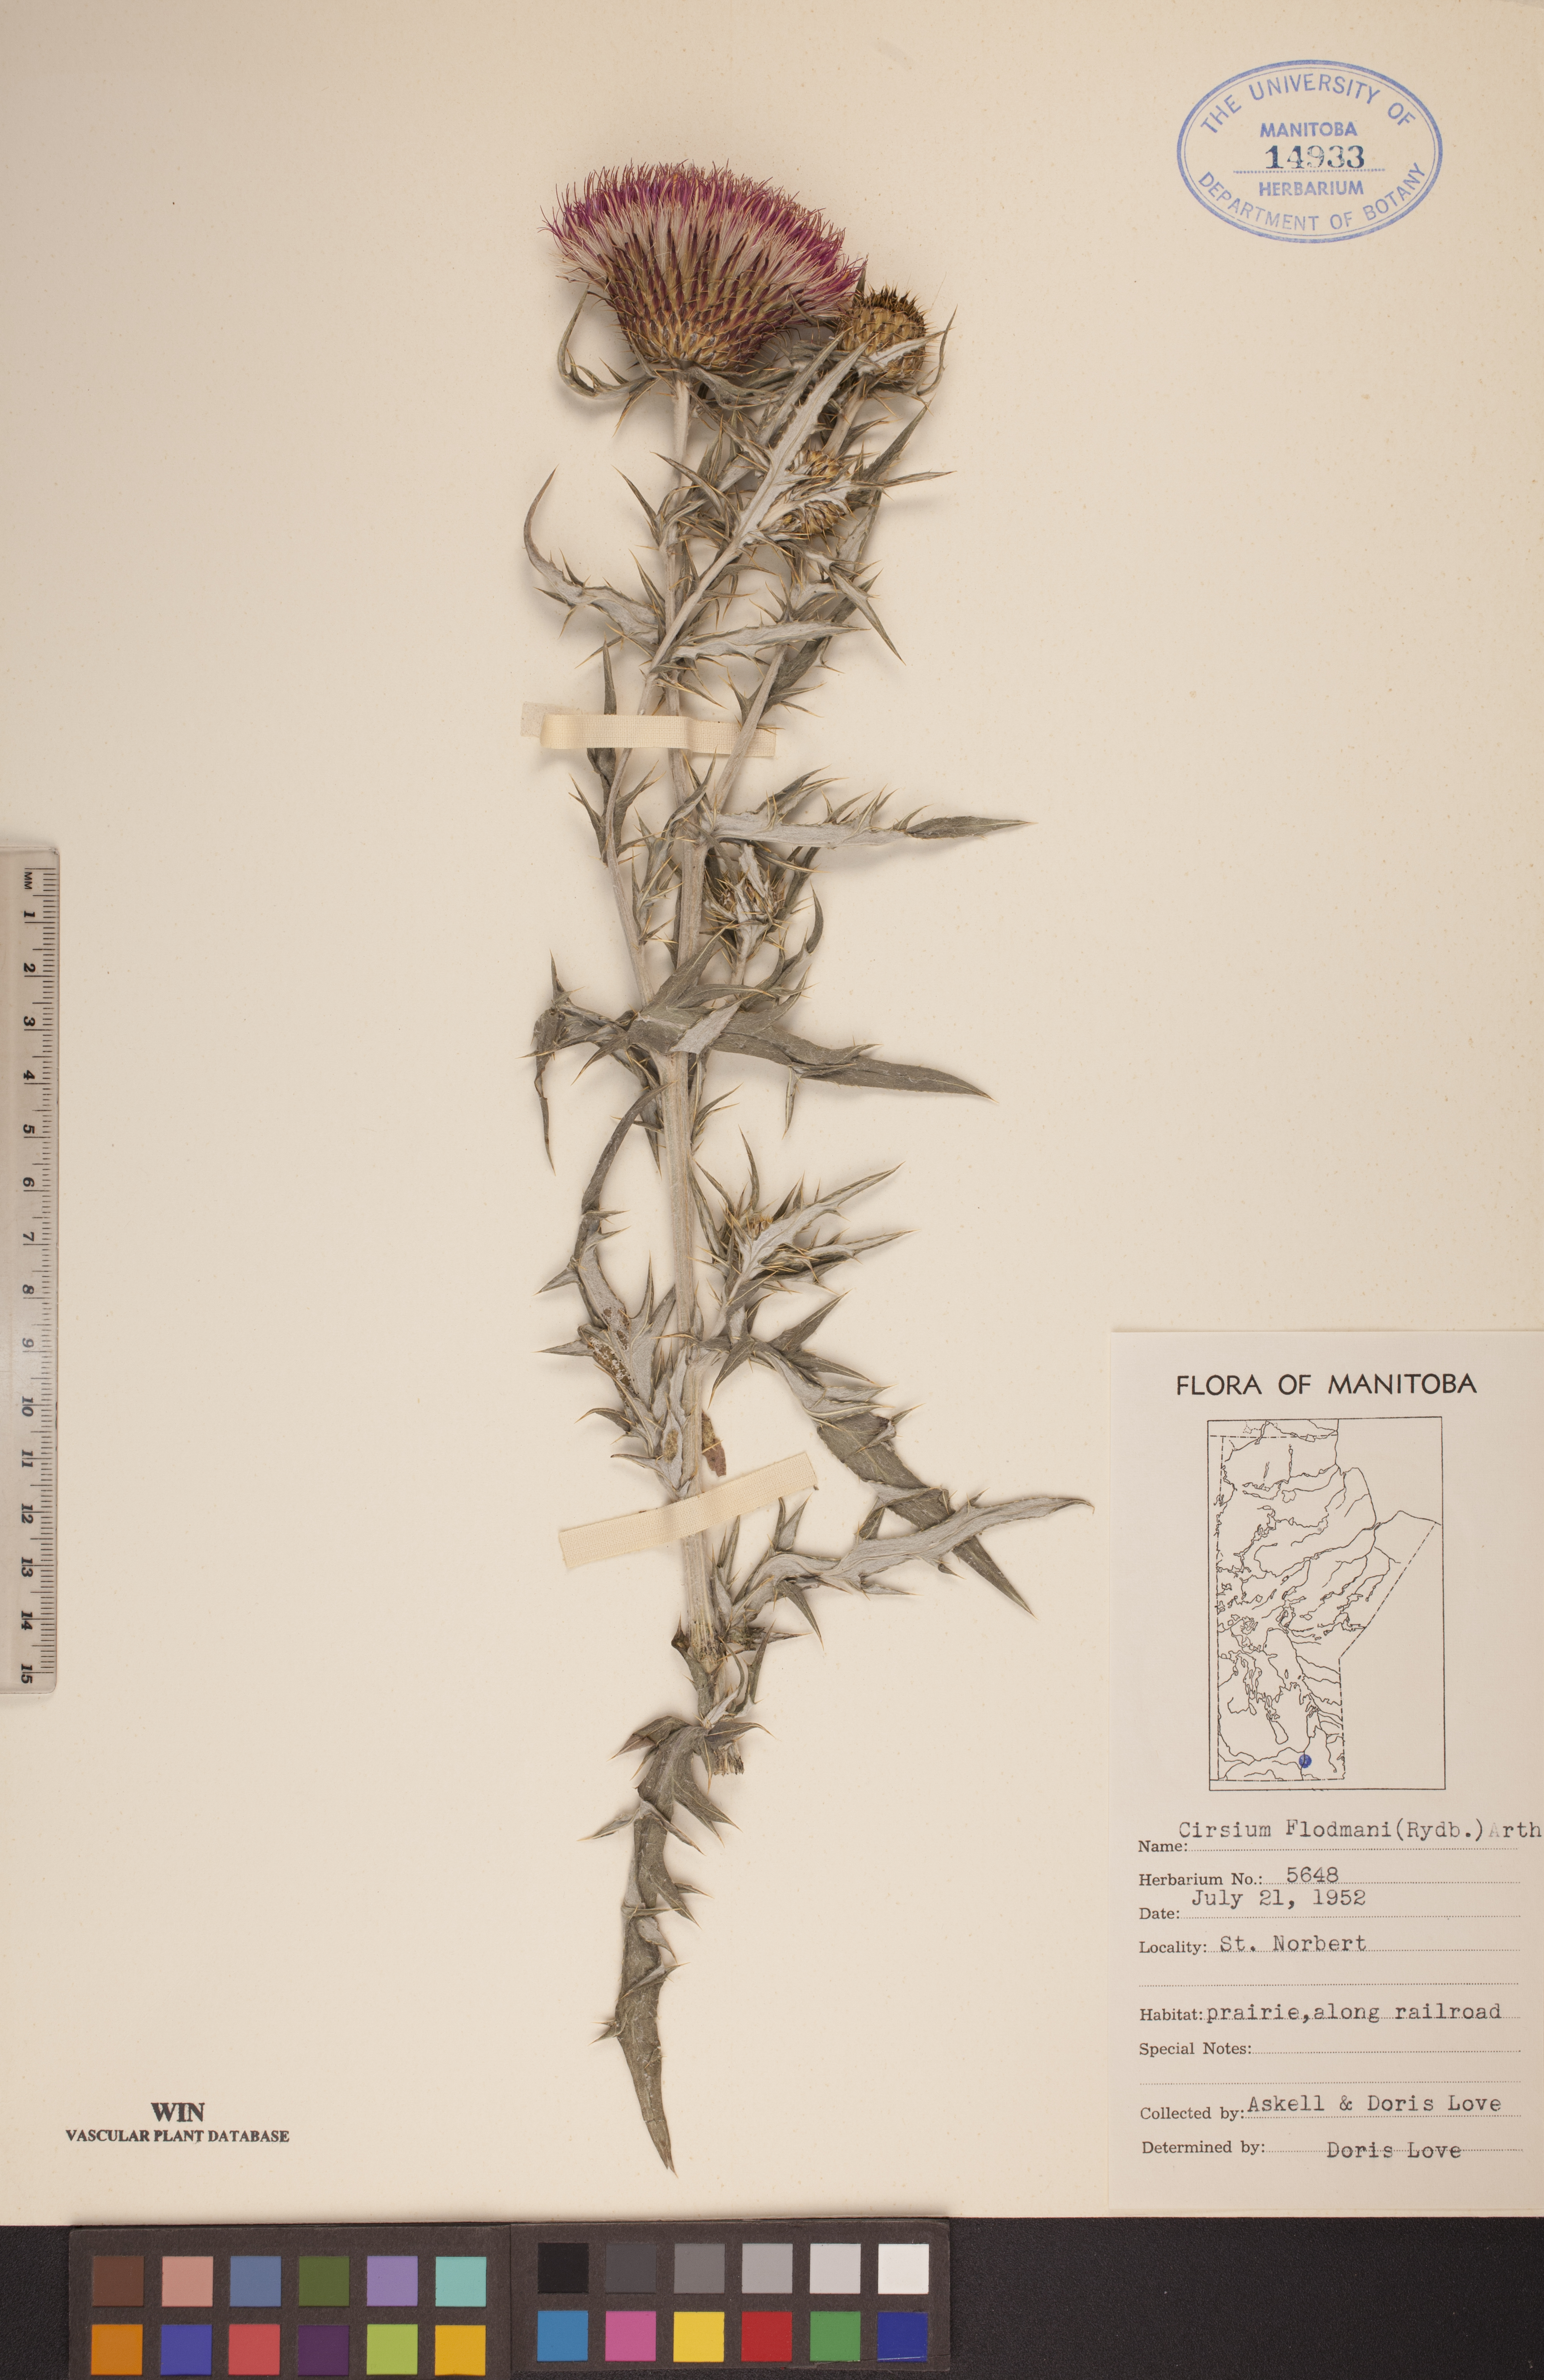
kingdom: Plantae
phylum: Tracheophyta
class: Magnoliopsida
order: Asterales
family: Asteraceae
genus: Cirsium
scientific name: Cirsium flodmanii
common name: Flodman's thistle
